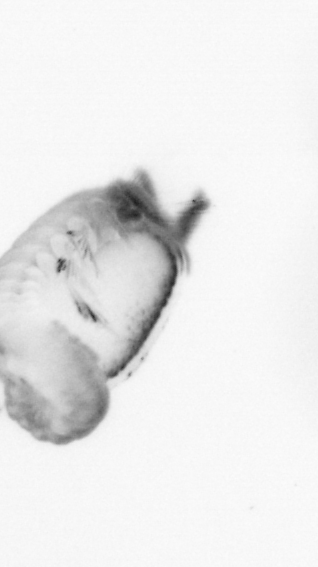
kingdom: Animalia
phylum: Annelida
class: Polychaeta
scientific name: Polychaeta
